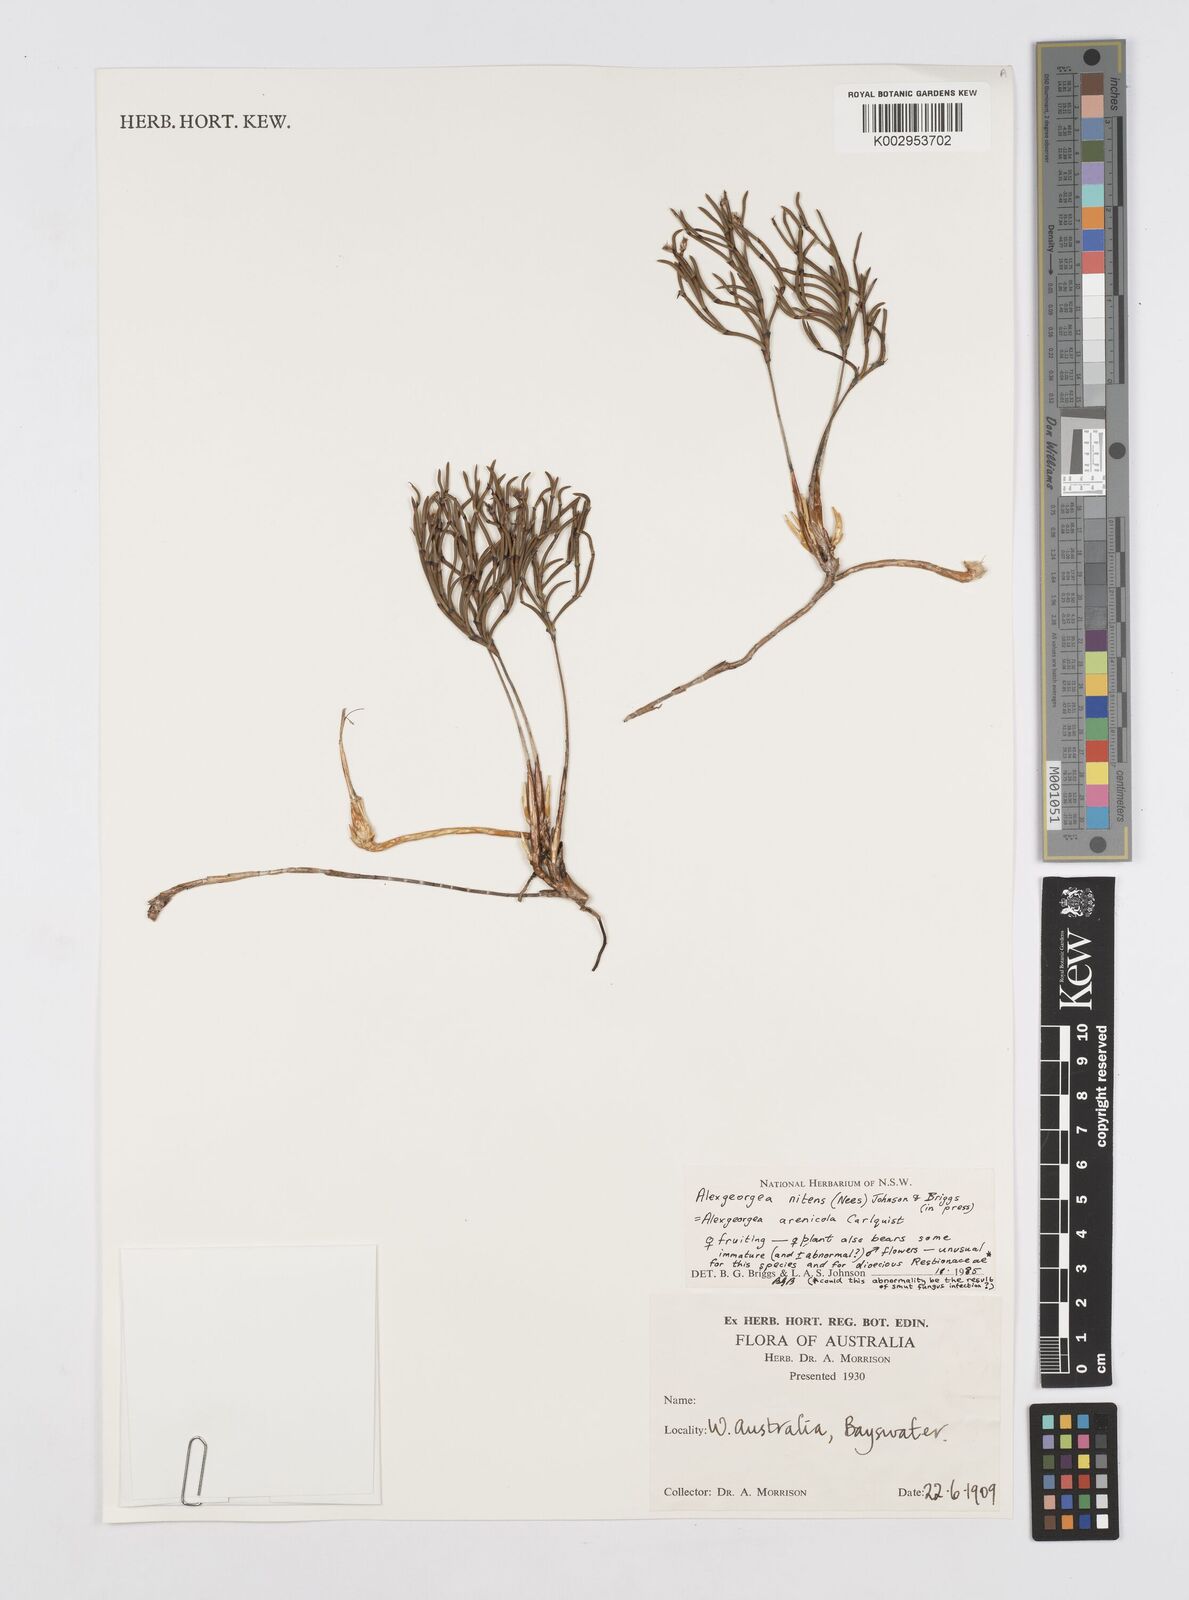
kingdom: Plantae
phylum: Tracheophyta
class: Liliopsida
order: Poales
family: Restionaceae
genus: Alexgeorgea
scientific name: Alexgeorgea nitens
